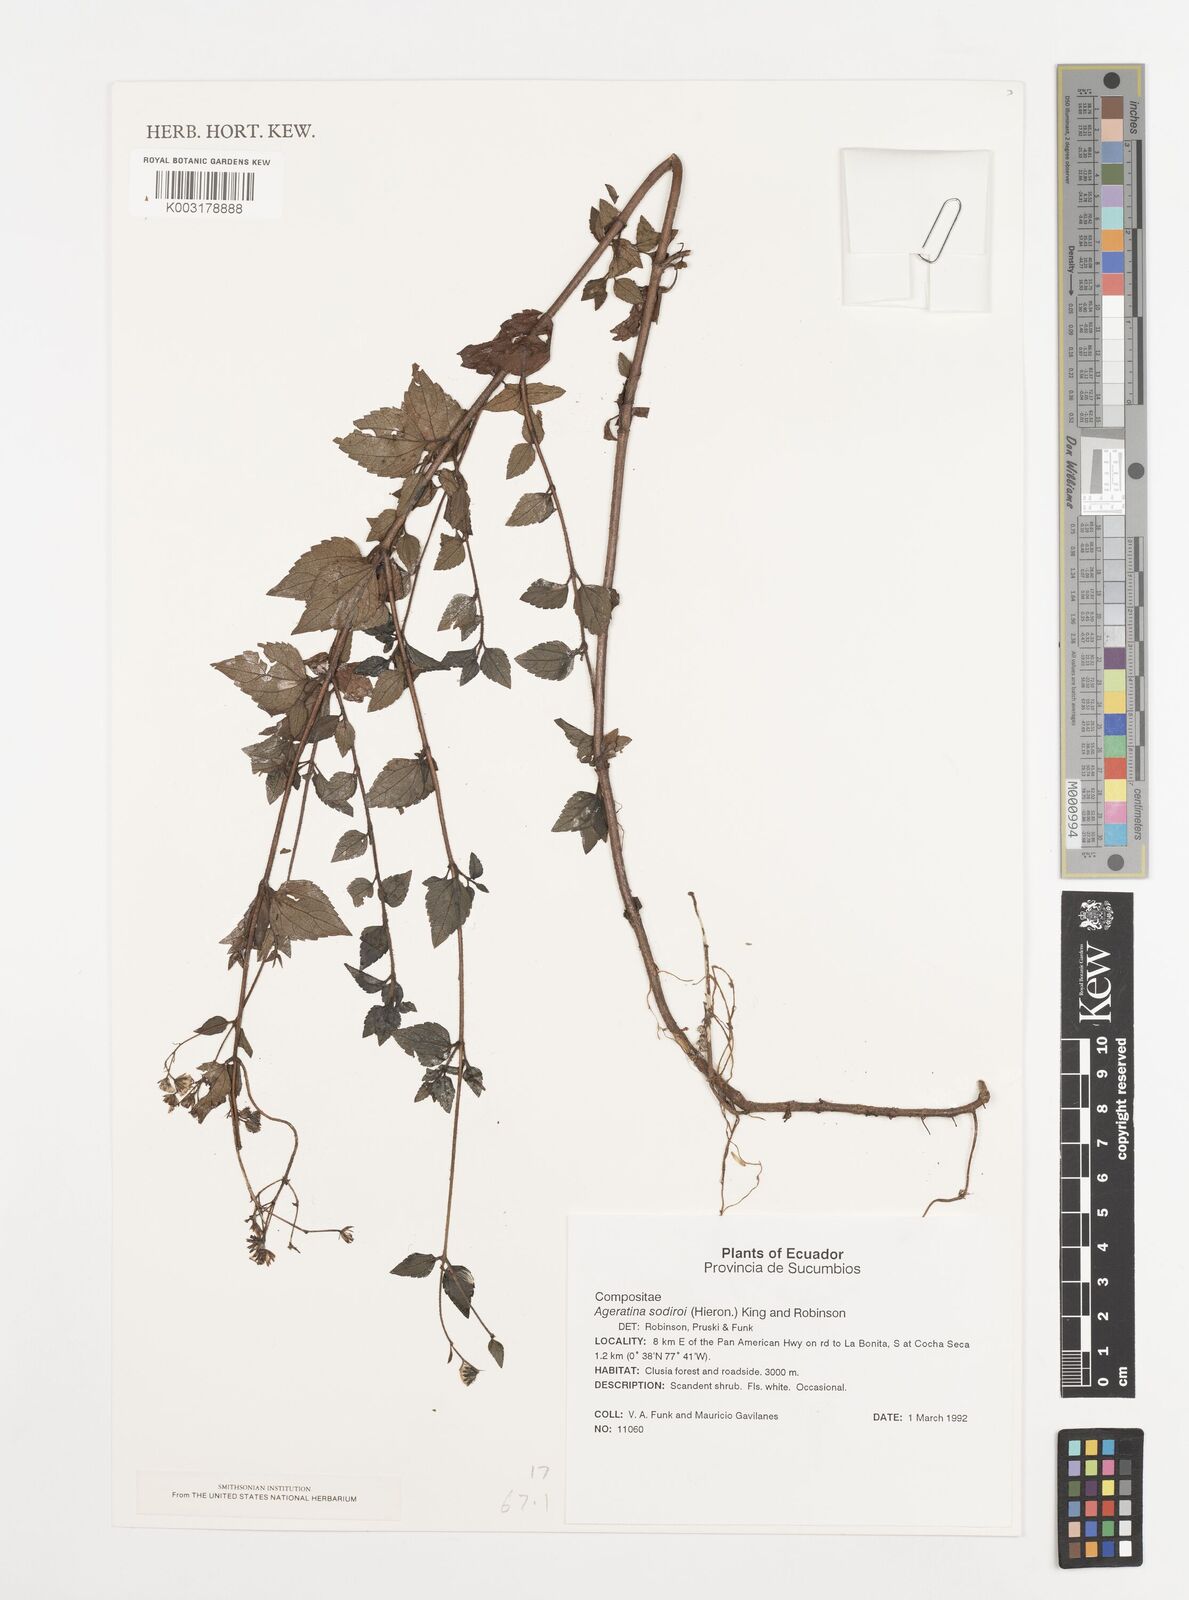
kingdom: Plantae
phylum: Tracheophyta
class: Magnoliopsida
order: Asterales
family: Asteraceae
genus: Ageratina
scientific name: Ageratina sodiroi
